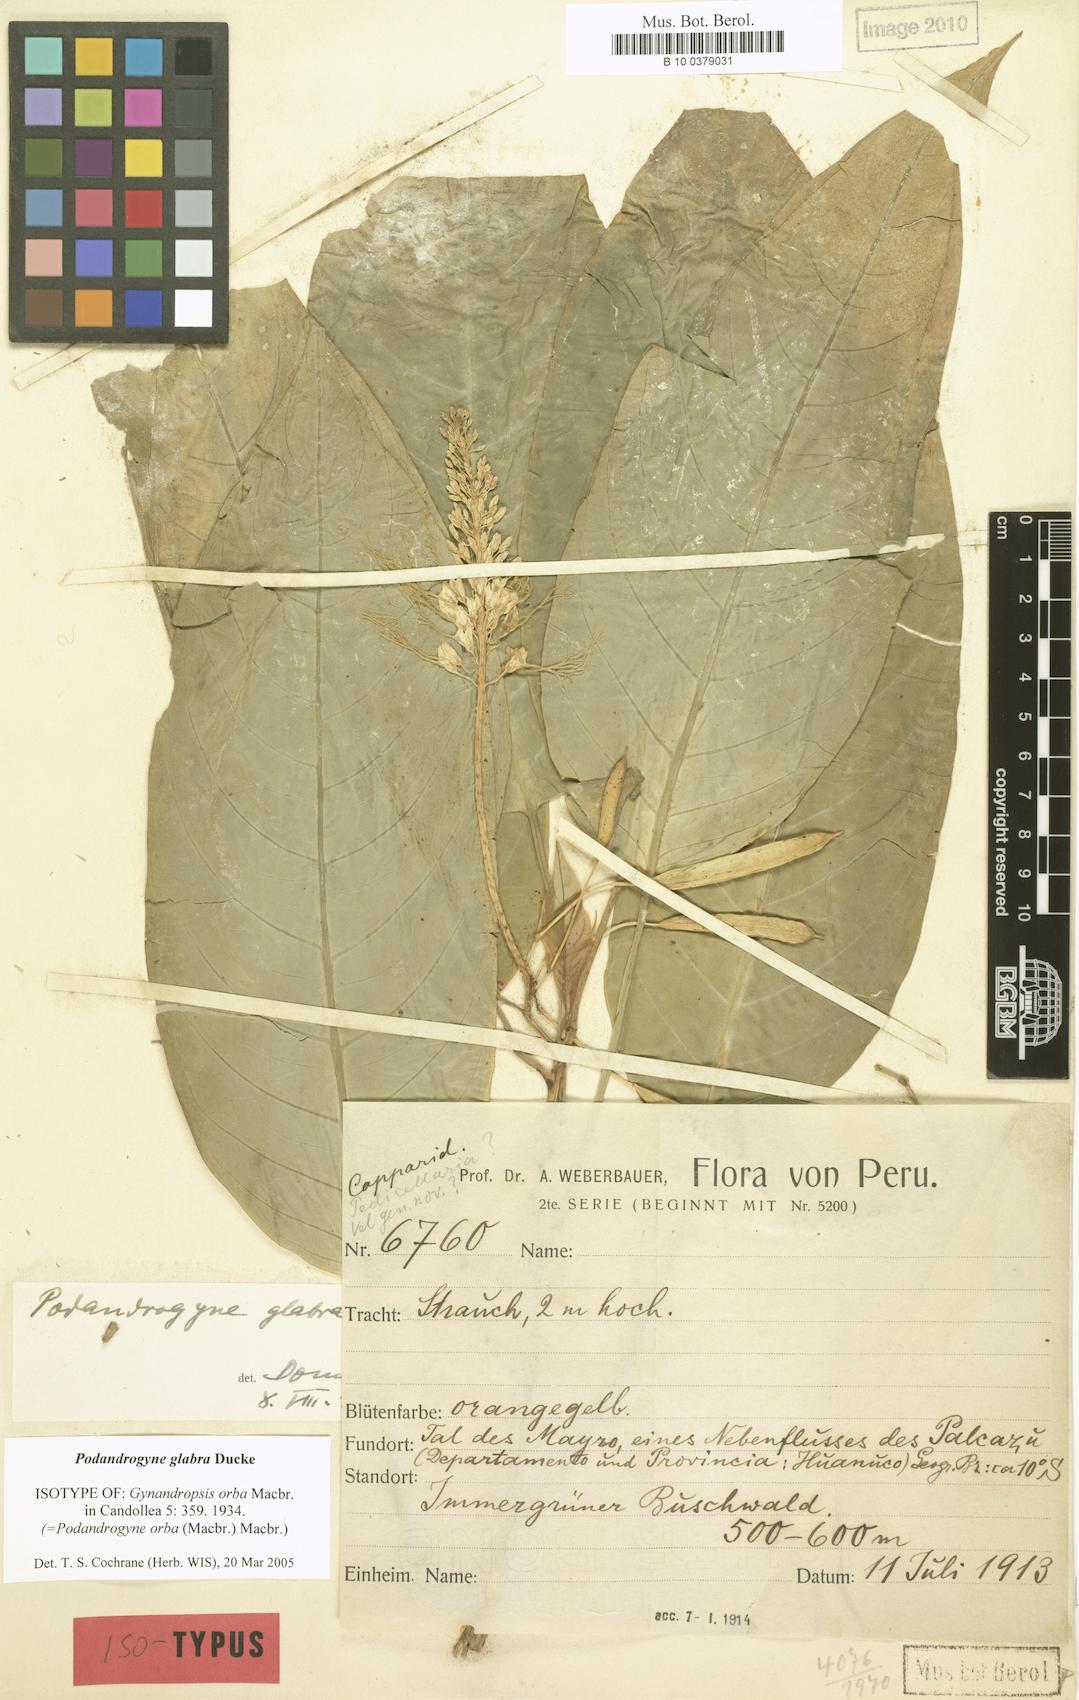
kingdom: Plantae
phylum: Tracheophyta
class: Magnoliopsida
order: Brassicales
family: Cleomaceae
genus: Podandrogyne
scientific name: Podandrogyne glabra
